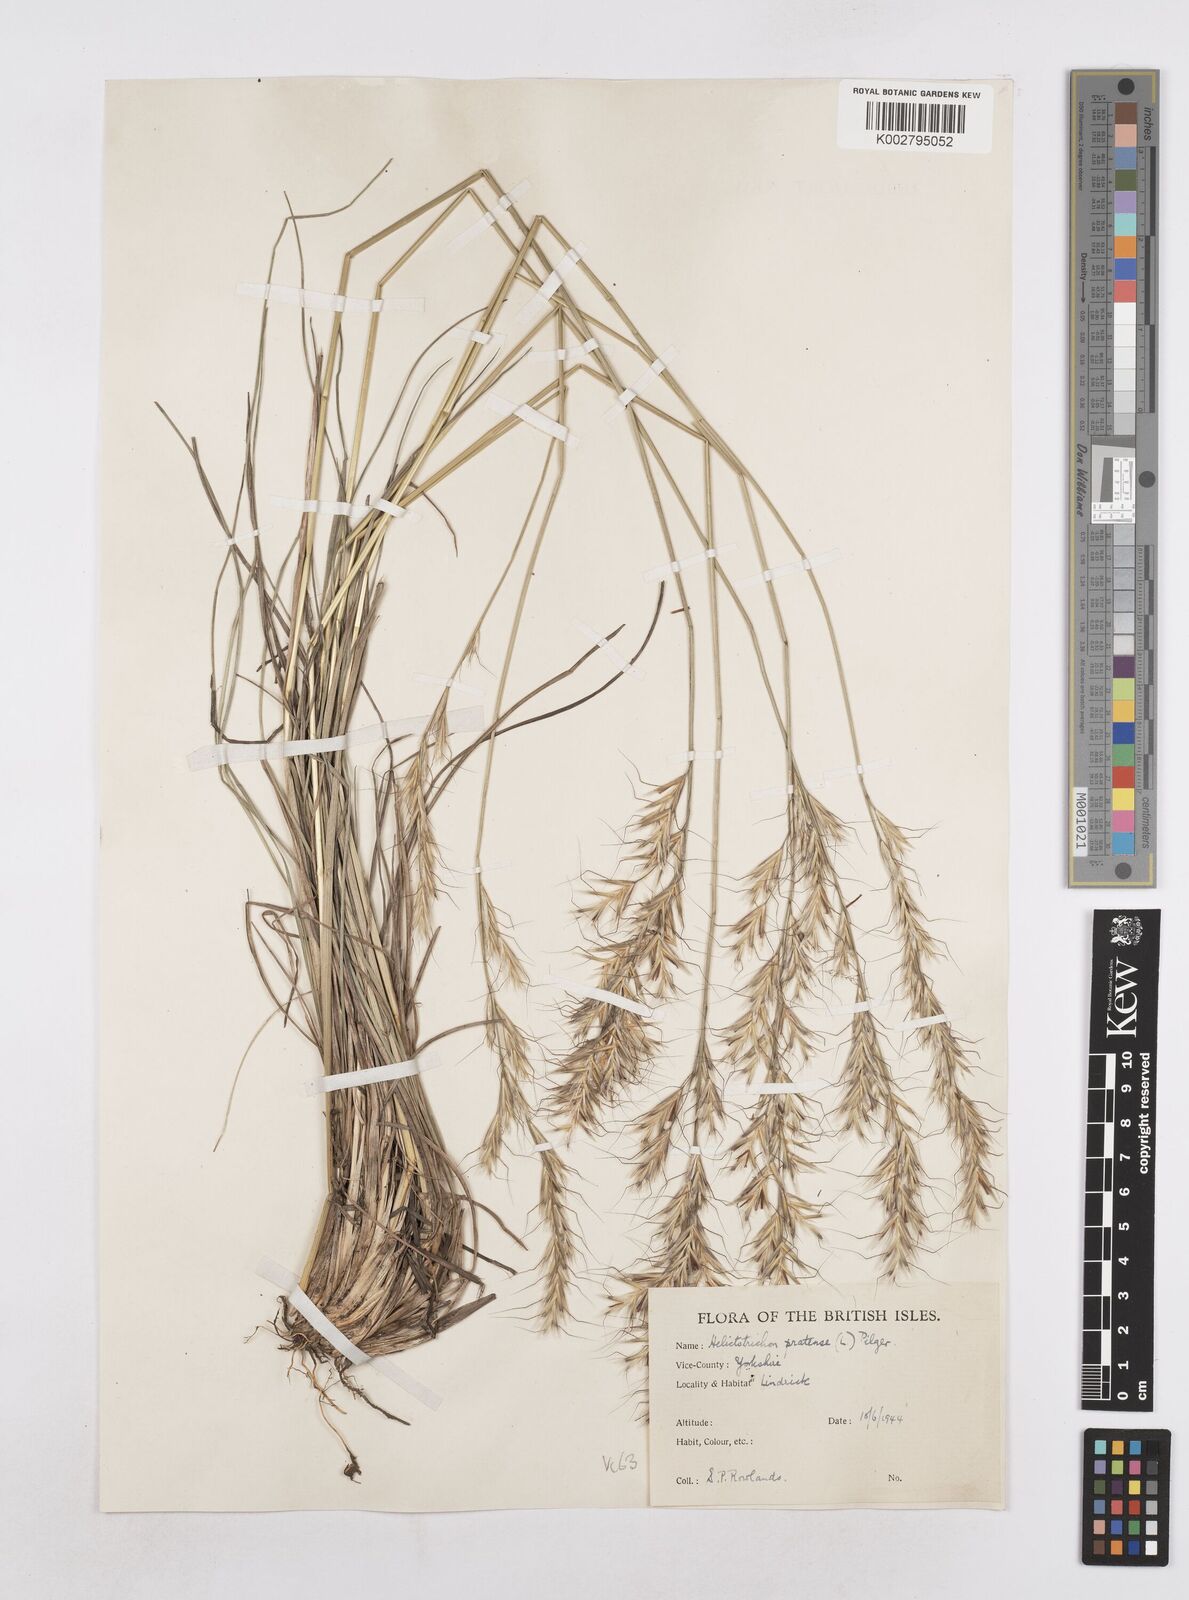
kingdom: Plantae
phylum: Tracheophyta
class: Liliopsida
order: Poales
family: Poaceae
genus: Helictochloa
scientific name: Helictochloa pratensis
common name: Meadow oat grass
